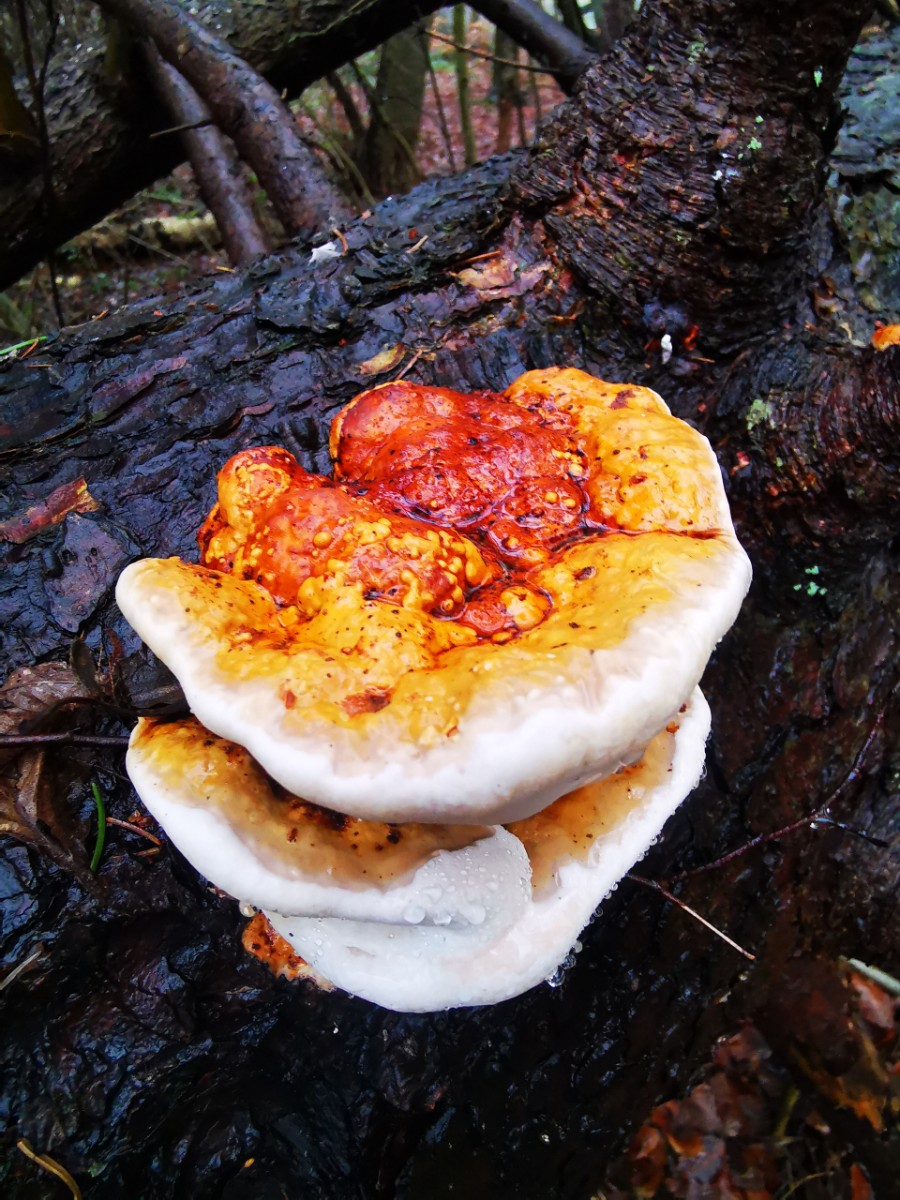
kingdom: Fungi
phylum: Basidiomycota
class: Agaricomycetes
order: Polyporales
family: Fomitopsidaceae
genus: Fomitopsis
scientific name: Fomitopsis pinicola
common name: randbæltet hovporesvamp
